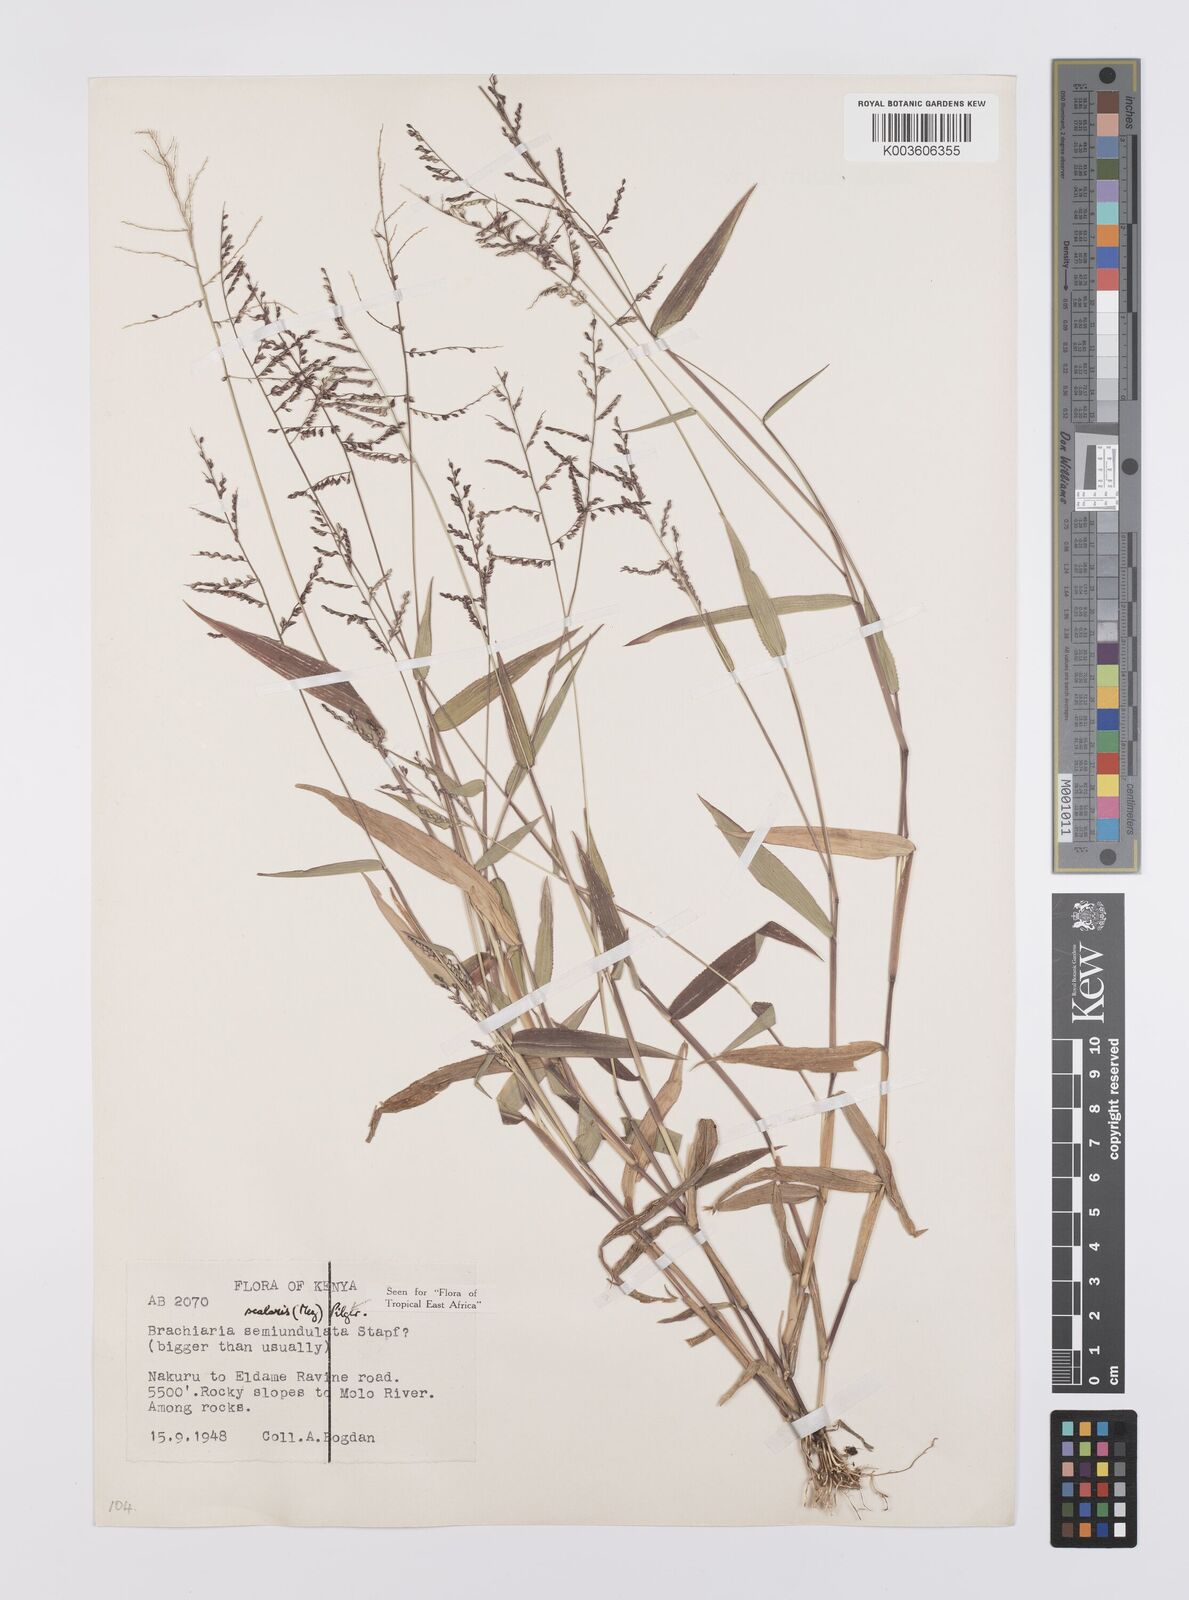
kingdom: Plantae
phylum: Tracheophyta
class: Liliopsida
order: Poales
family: Poaceae
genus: Urochloa
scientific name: Urochloa comata
